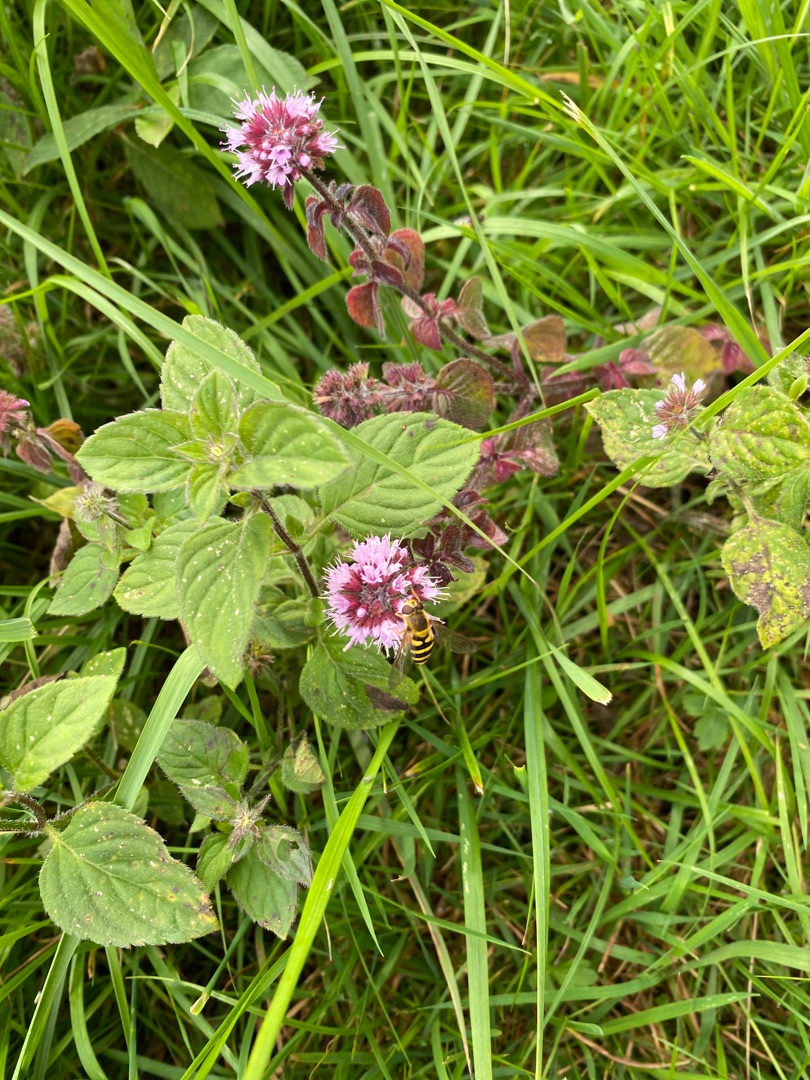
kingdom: Plantae
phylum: Tracheophyta
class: Magnoliopsida
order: Lamiales
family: Lamiaceae
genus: Mentha
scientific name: Mentha aquatica
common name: Vand-mynte
